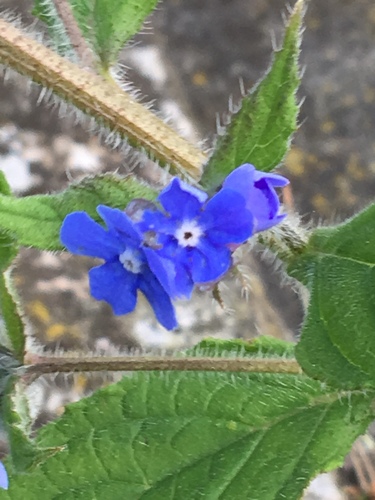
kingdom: Plantae
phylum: Tracheophyta
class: Magnoliopsida
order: Boraginales
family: Boraginaceae
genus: Pentaglottis
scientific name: Pentaglottis sempervirens
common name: Green alkanet
